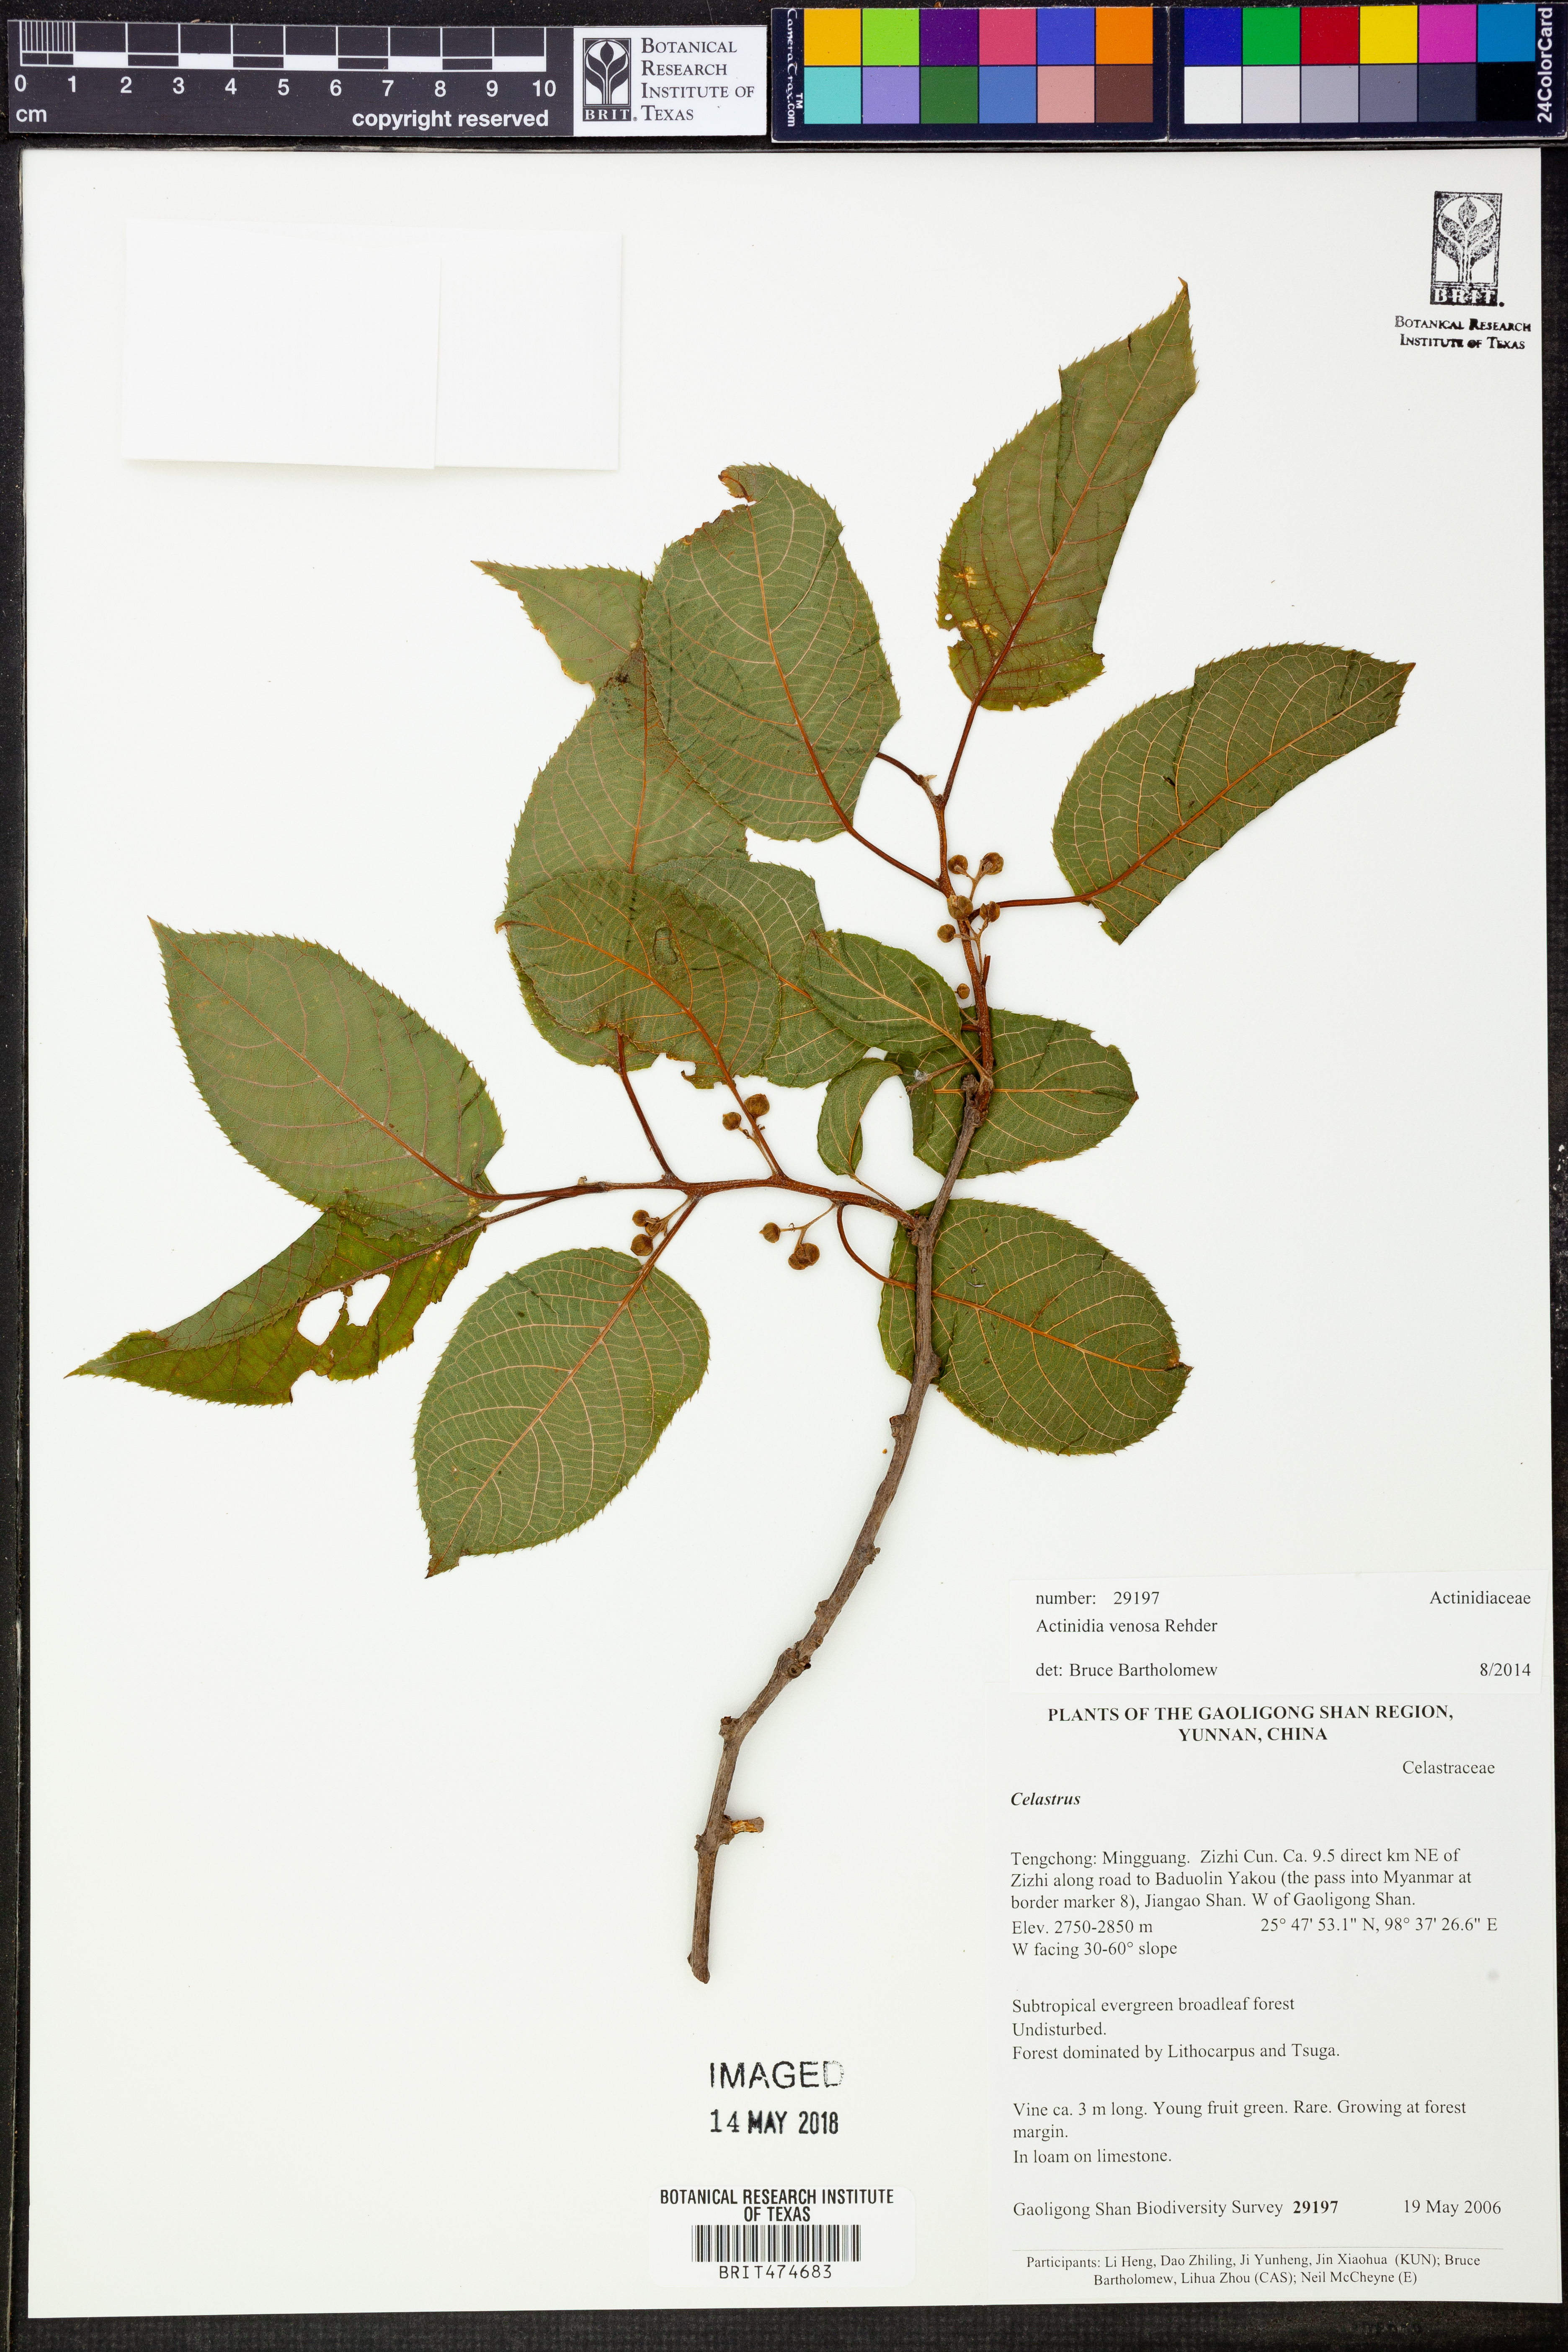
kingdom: Plantae
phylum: Tracheophyta
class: Magnoliopsida
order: Ericales
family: Actinidiaceae
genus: Actinidia
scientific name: Actinidia venosa
